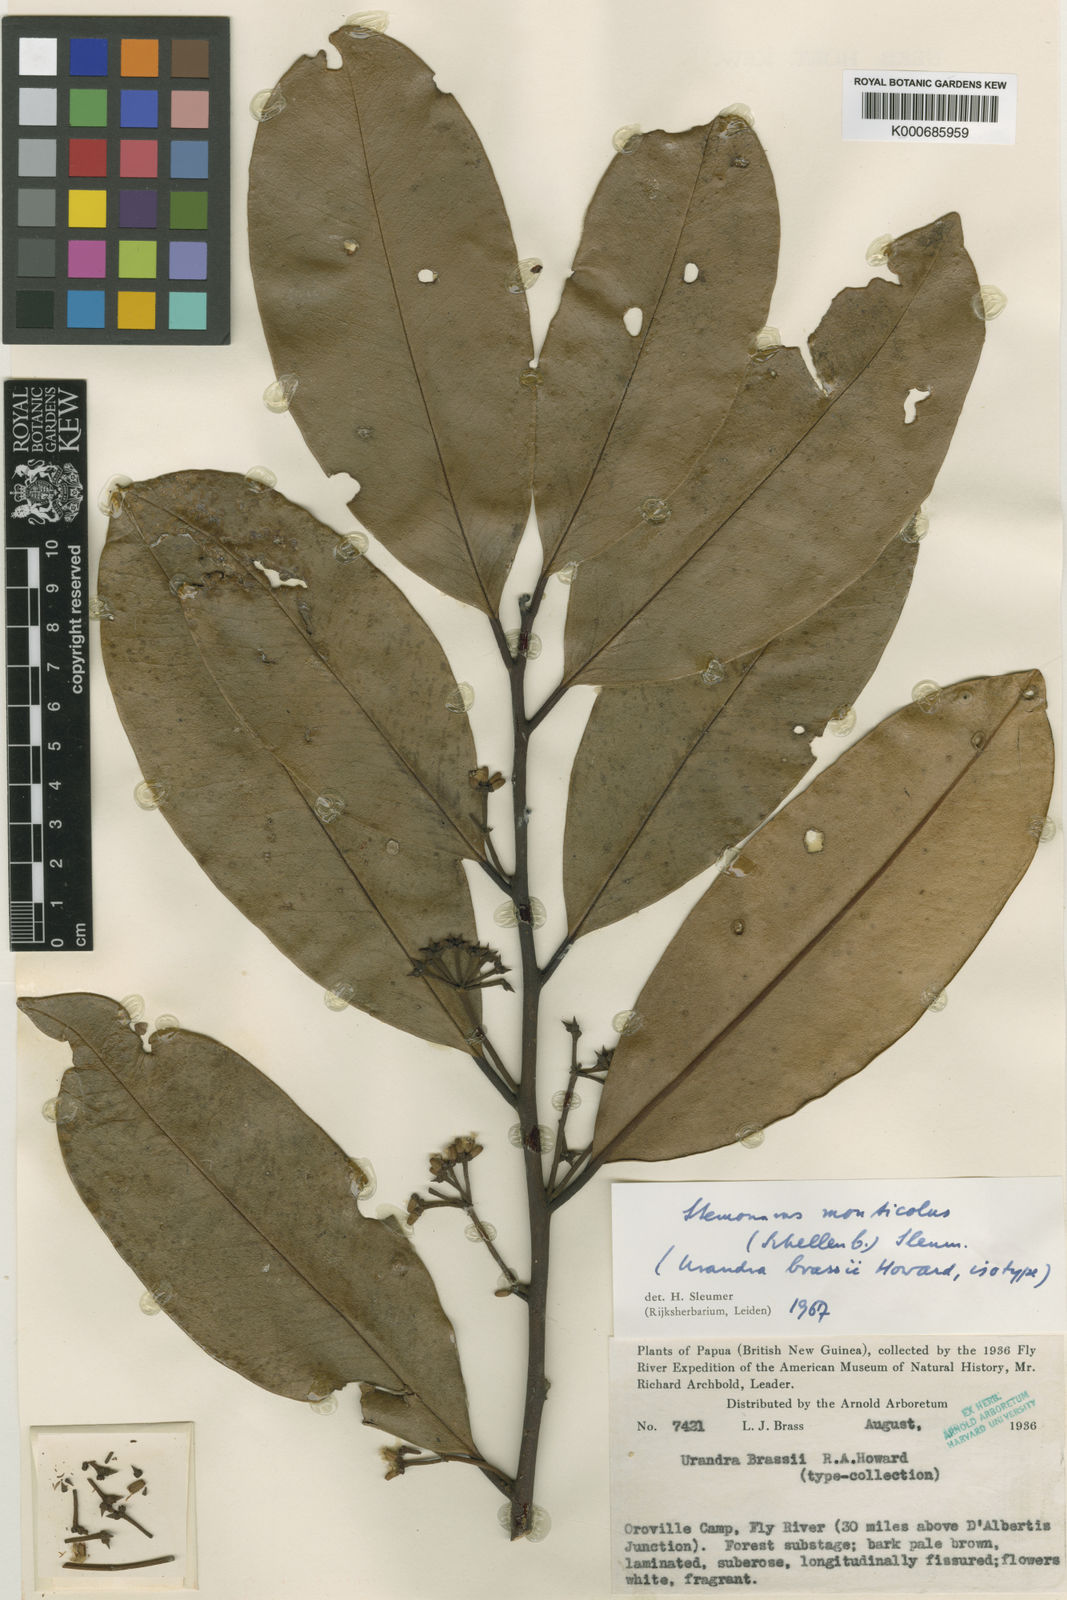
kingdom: Plantae
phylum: Tracheophyta
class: Magnoliopsida
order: Cardiopteridales
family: Stemonuraceae
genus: Stemonurus
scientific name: Stemonurus monticola
